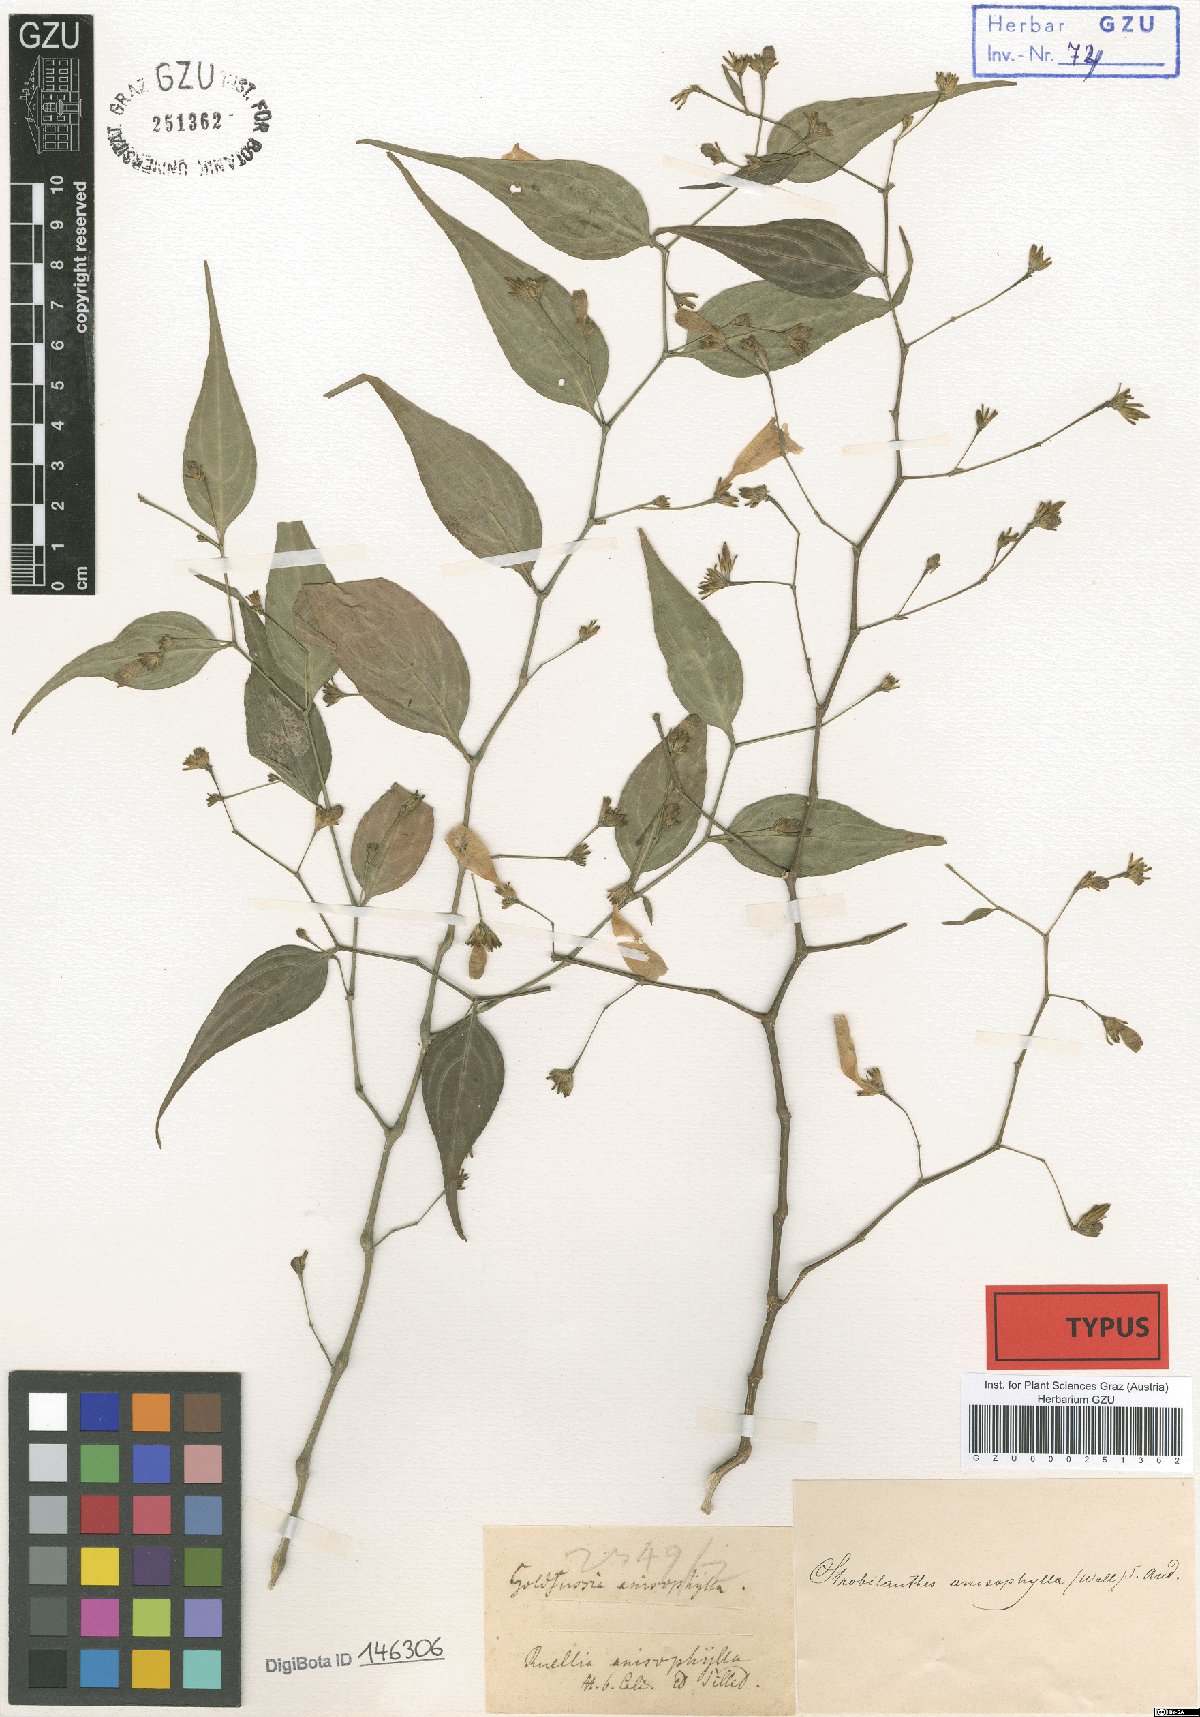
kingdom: Plantae
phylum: Tracheophyta
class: Magnoliopsida
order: Lamiales
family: Acanthaceae
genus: Strobilanthes
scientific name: Strobilanthes anisophylla
